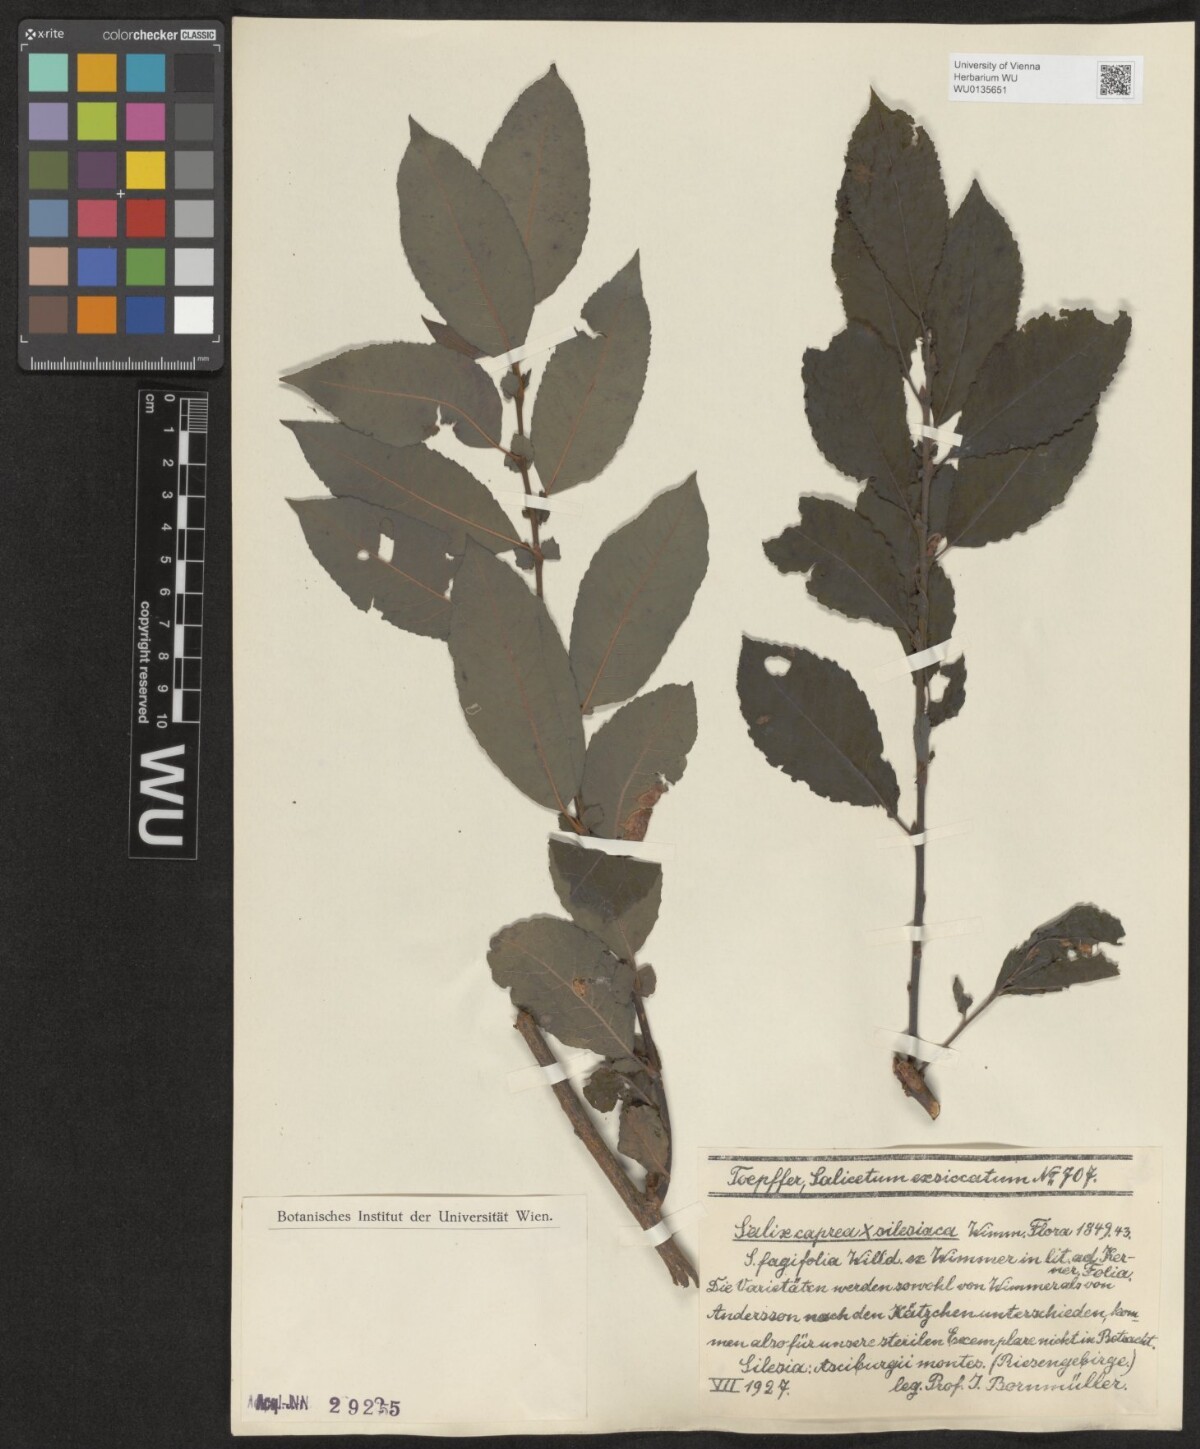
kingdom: Plantae
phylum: Tracheophyta
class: Magnoliopsida
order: Malpighiales
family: Salicaceae
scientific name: Salicaceae
